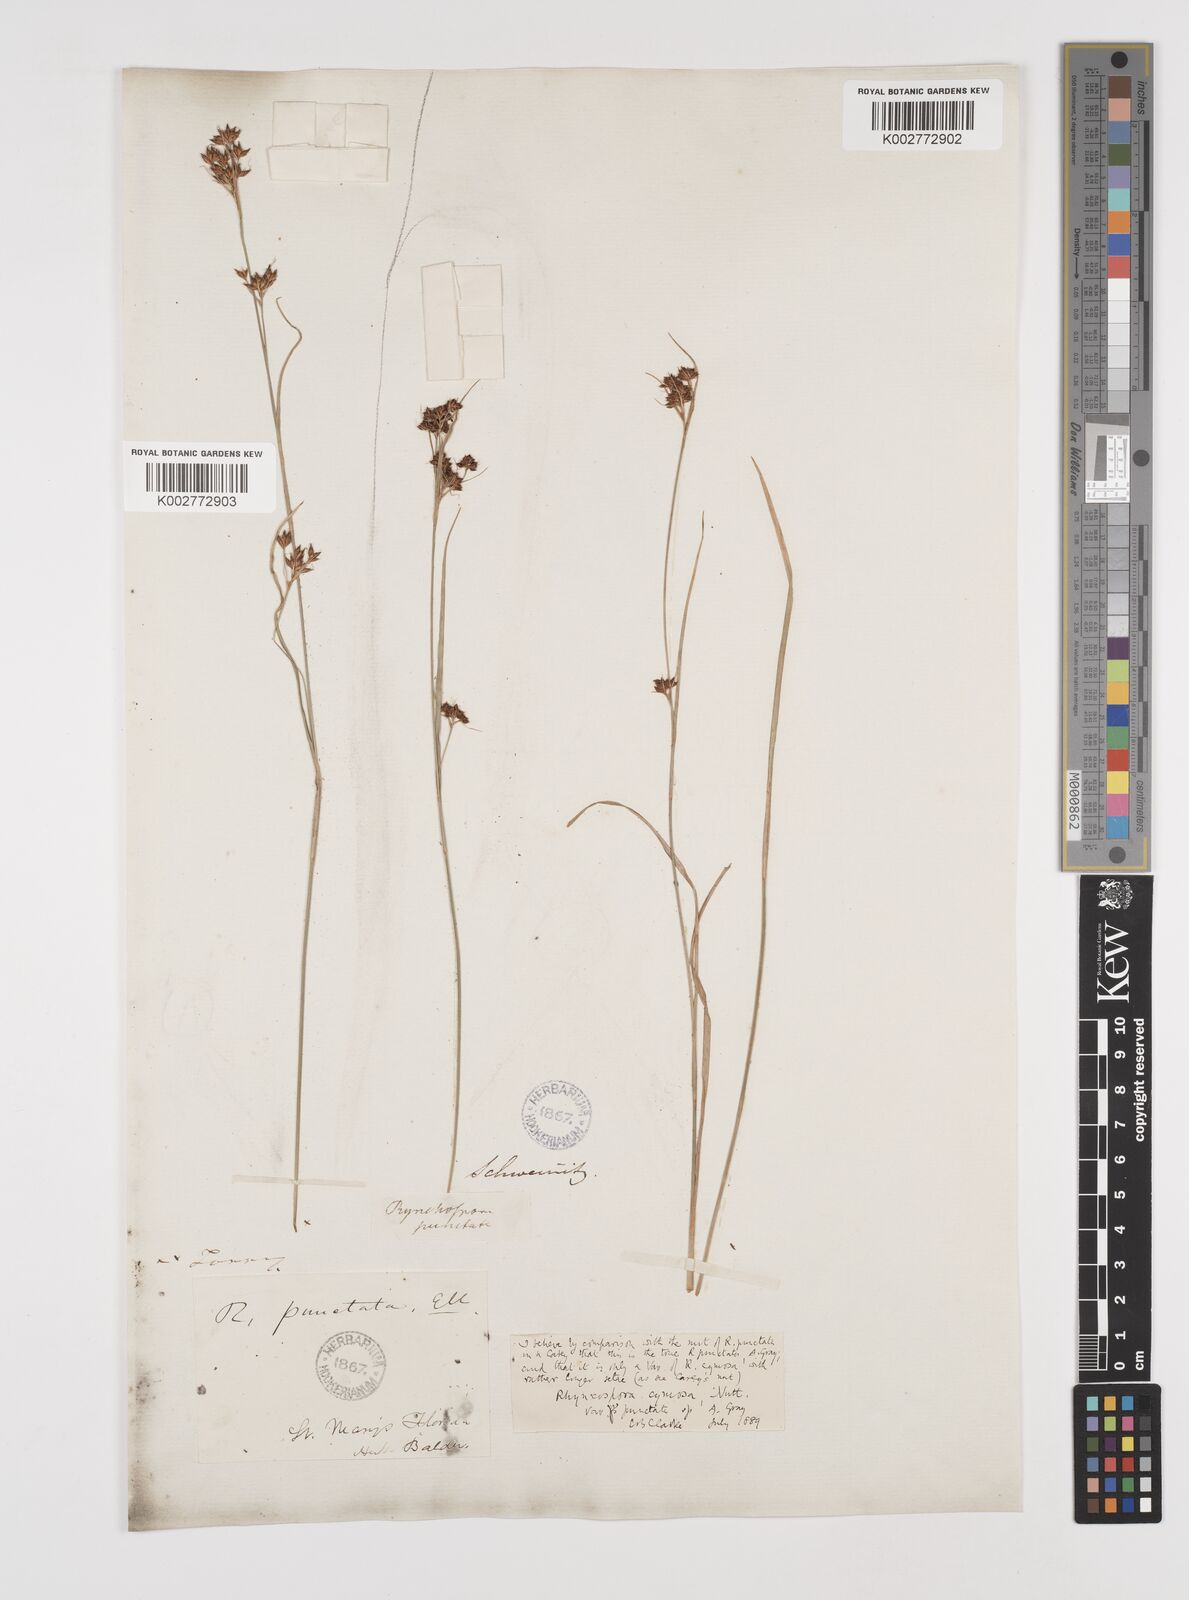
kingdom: Plantae
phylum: Tracheophyta
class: Liliopsida
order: Poales
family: Cyperaceae
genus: Scirpus
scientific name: Scirpus polyphyllus
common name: Leafy bulrush
